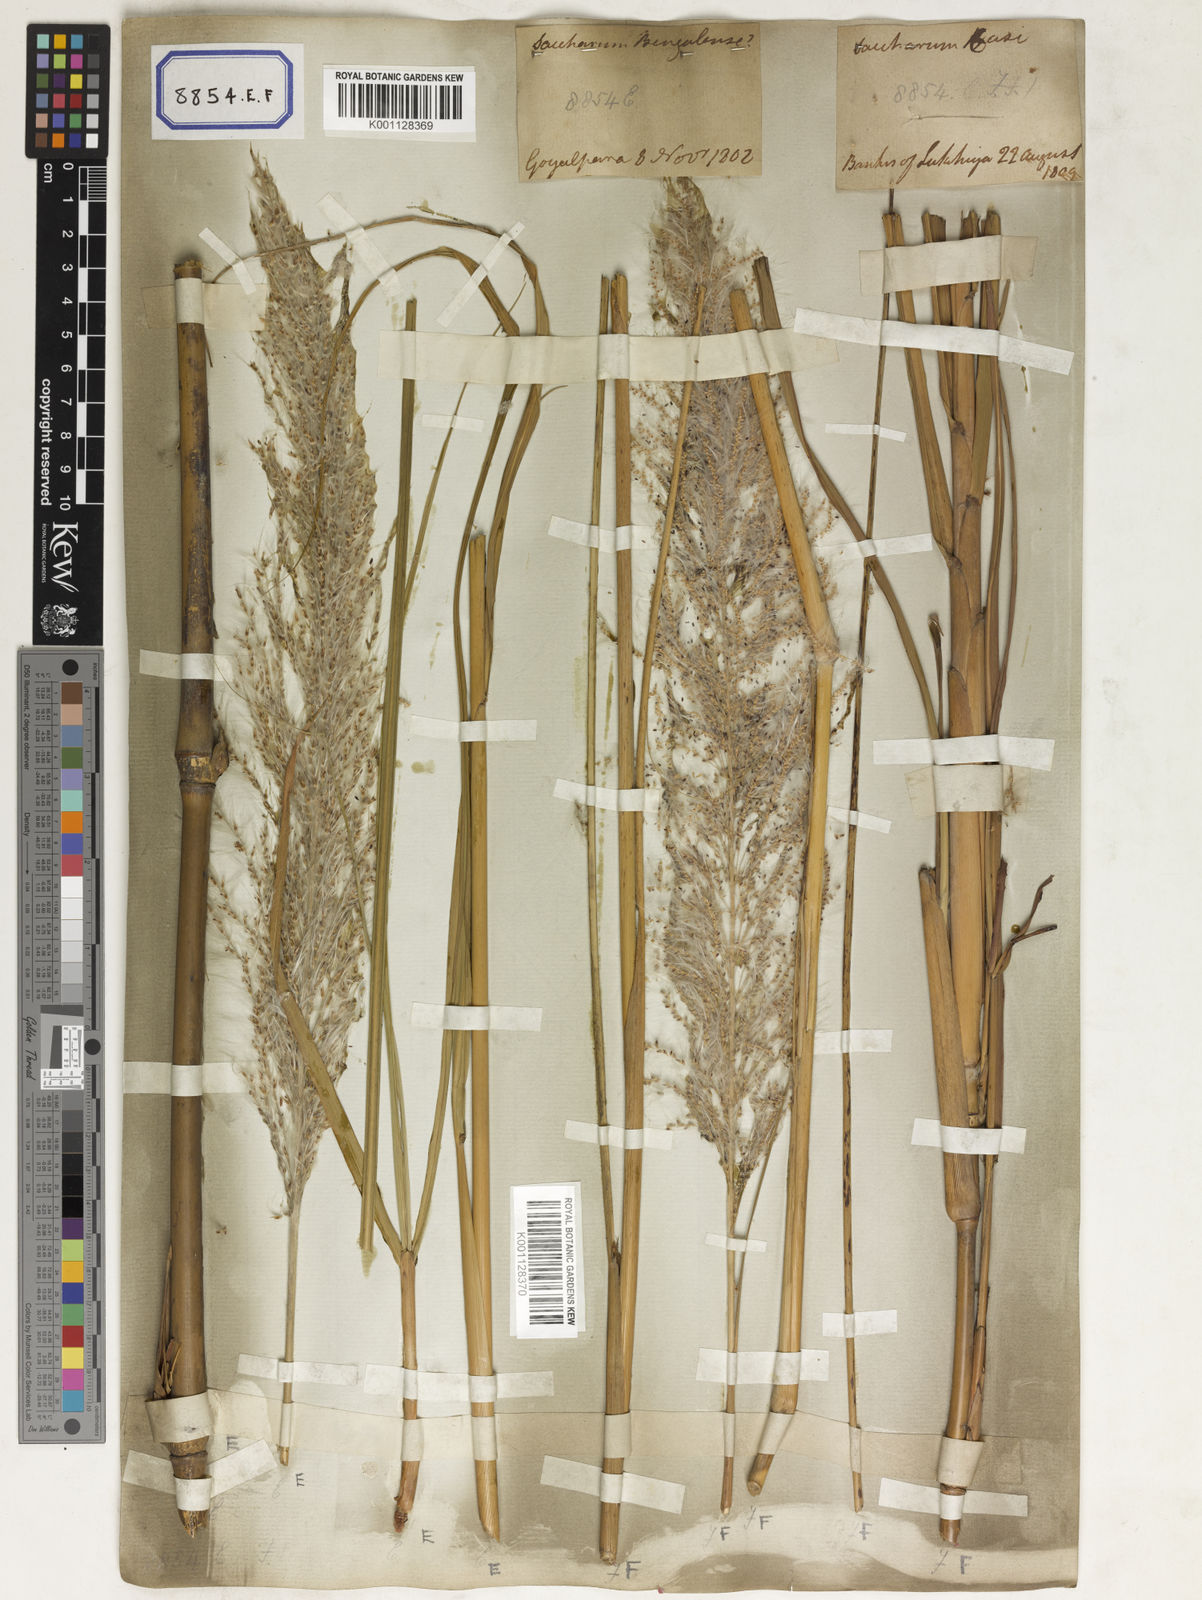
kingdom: Plantae
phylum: Tracheophyta
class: Liliopsida
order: Poales
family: Poaceae
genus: Saccharum
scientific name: Saccharum
